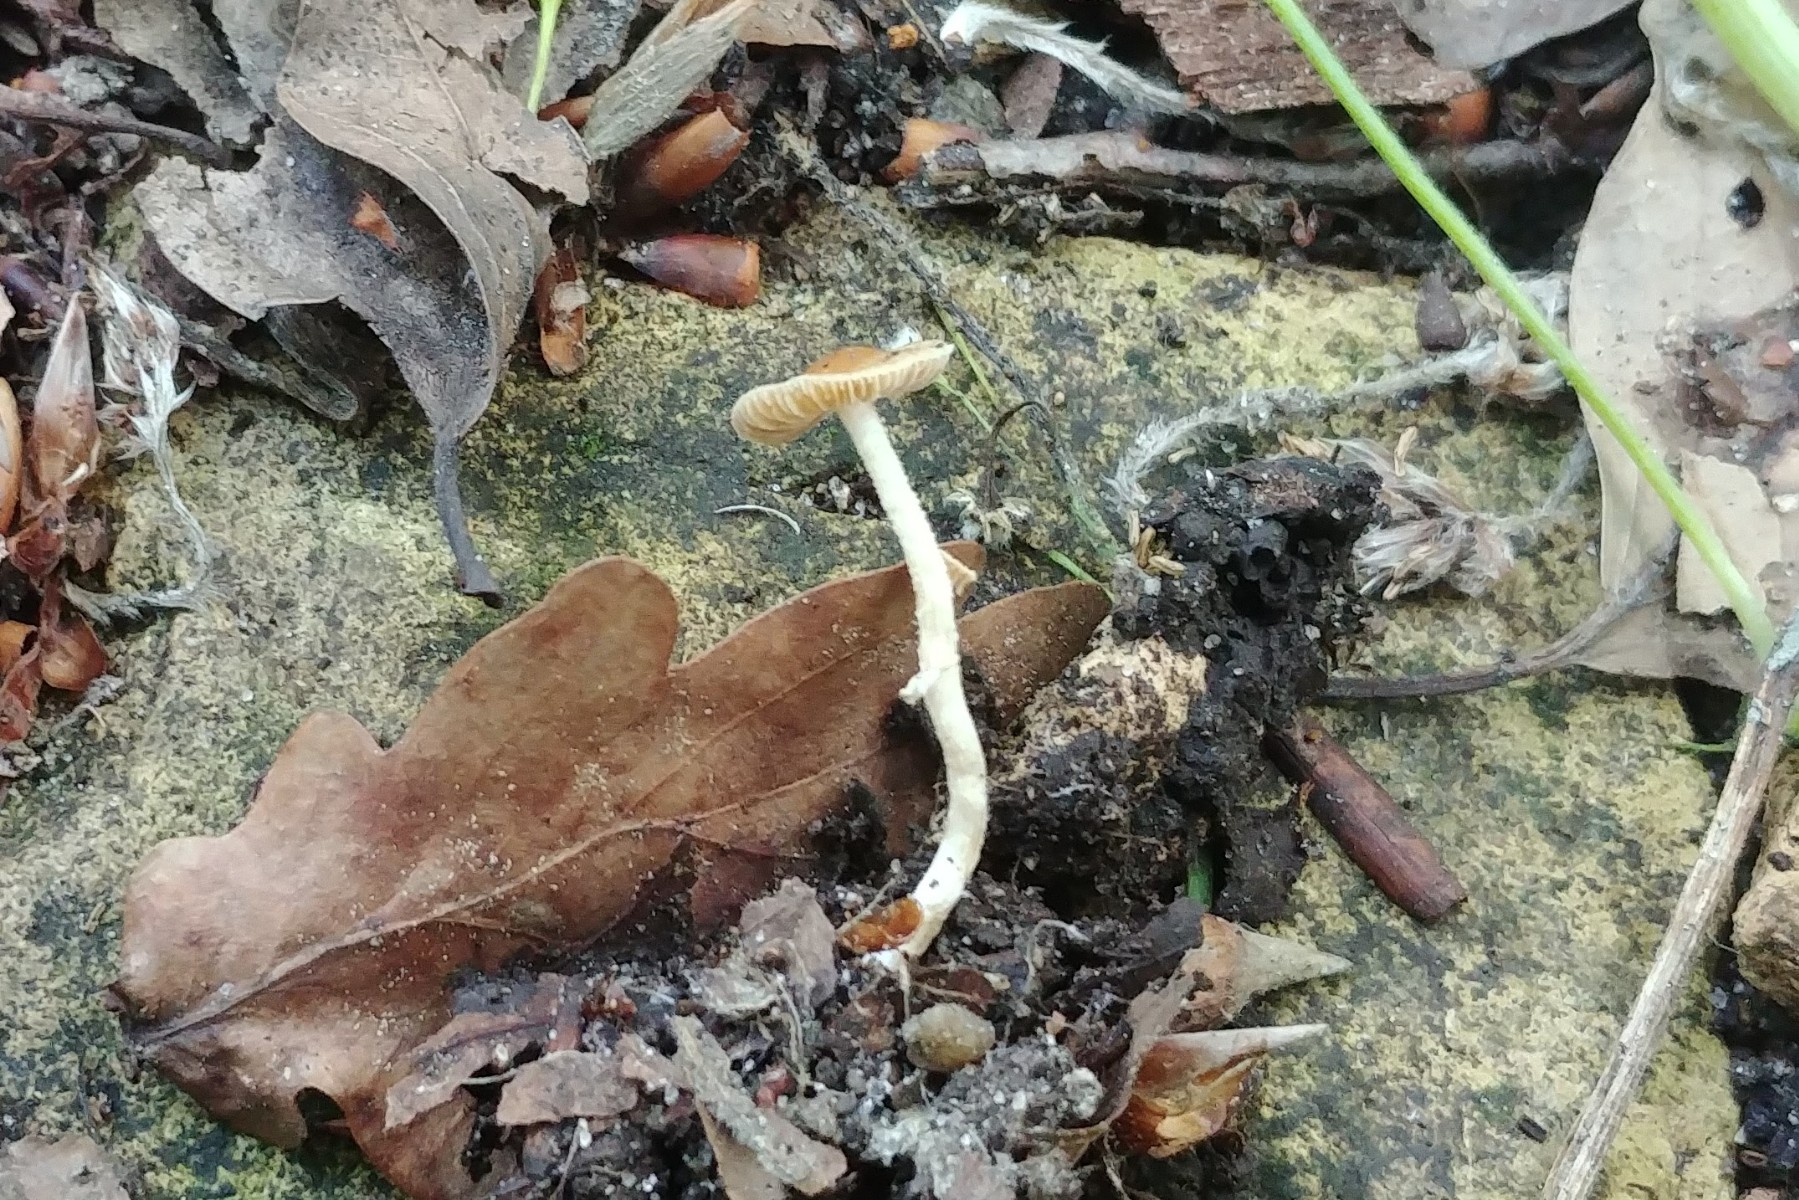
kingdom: Fungi
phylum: Basidiomycota
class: Agaricomycetes
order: Agaricales
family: Bolbitiaceae
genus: Conocybe
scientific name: Conocybe aporos
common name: tidlig dansehat
